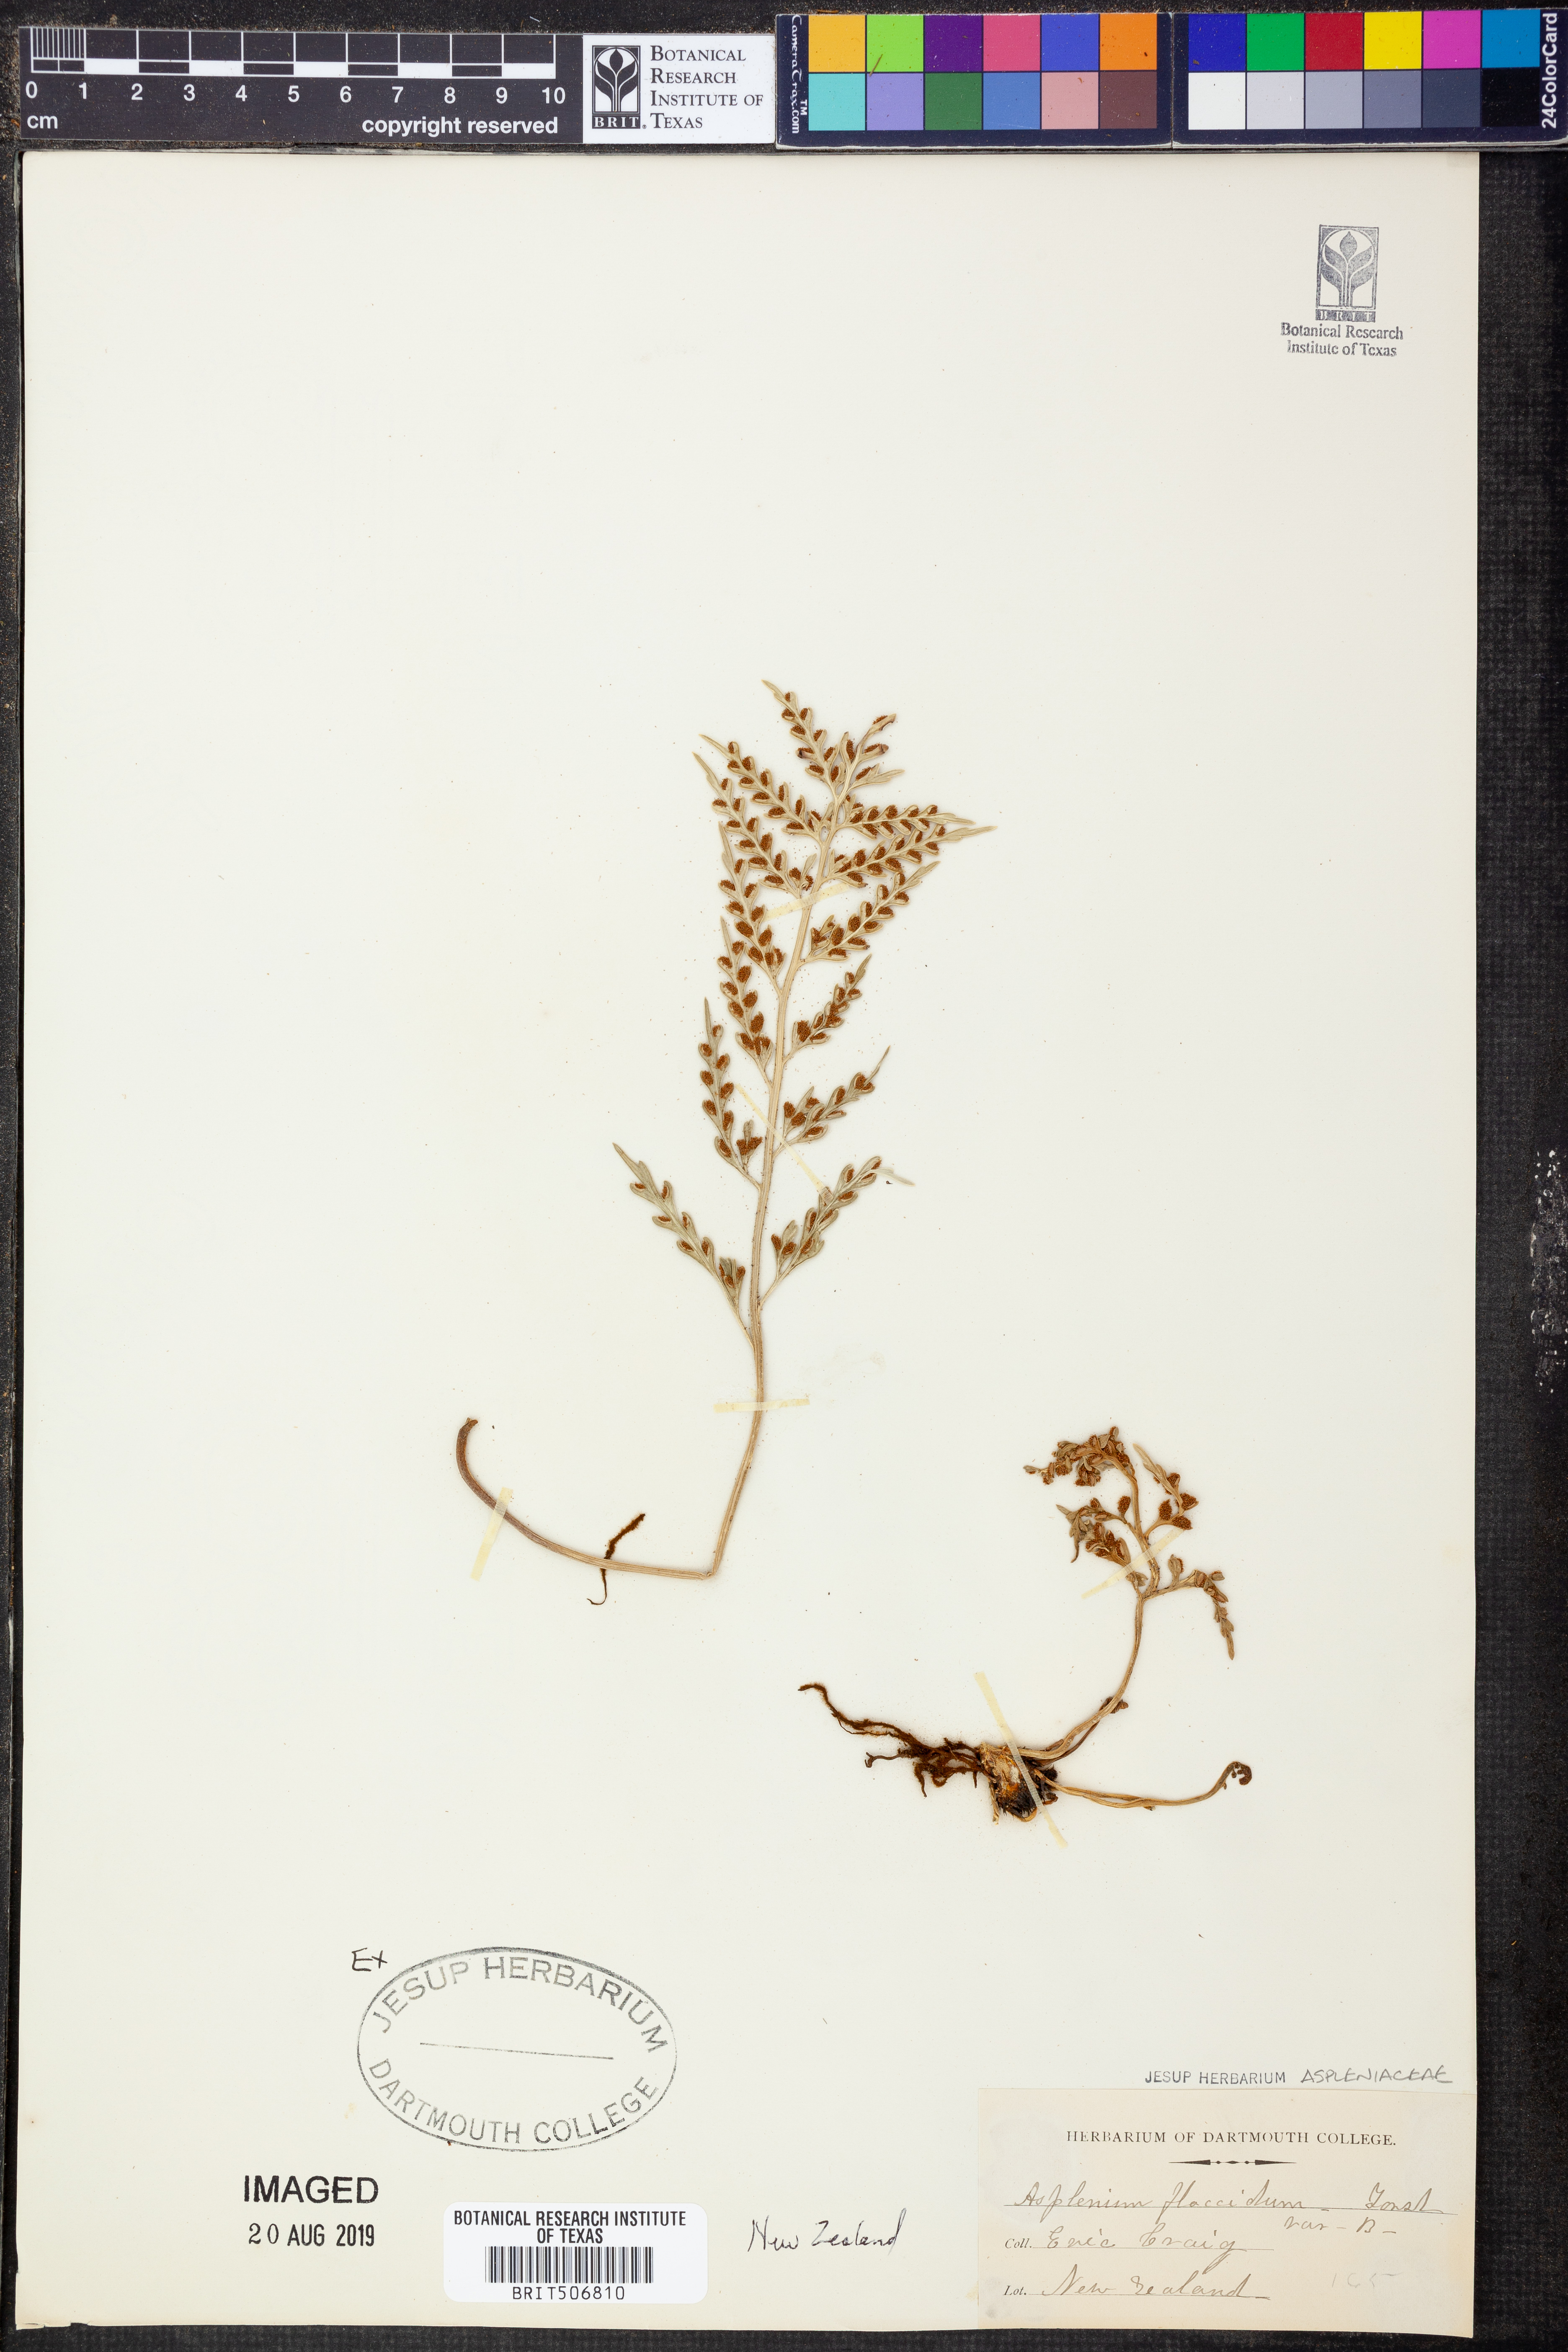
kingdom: Plantae
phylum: Tracheophyta
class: Polypodiopsida
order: Polypodiales
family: Aspleniaceae
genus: Asplenium
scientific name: Asplenium flaccidum
